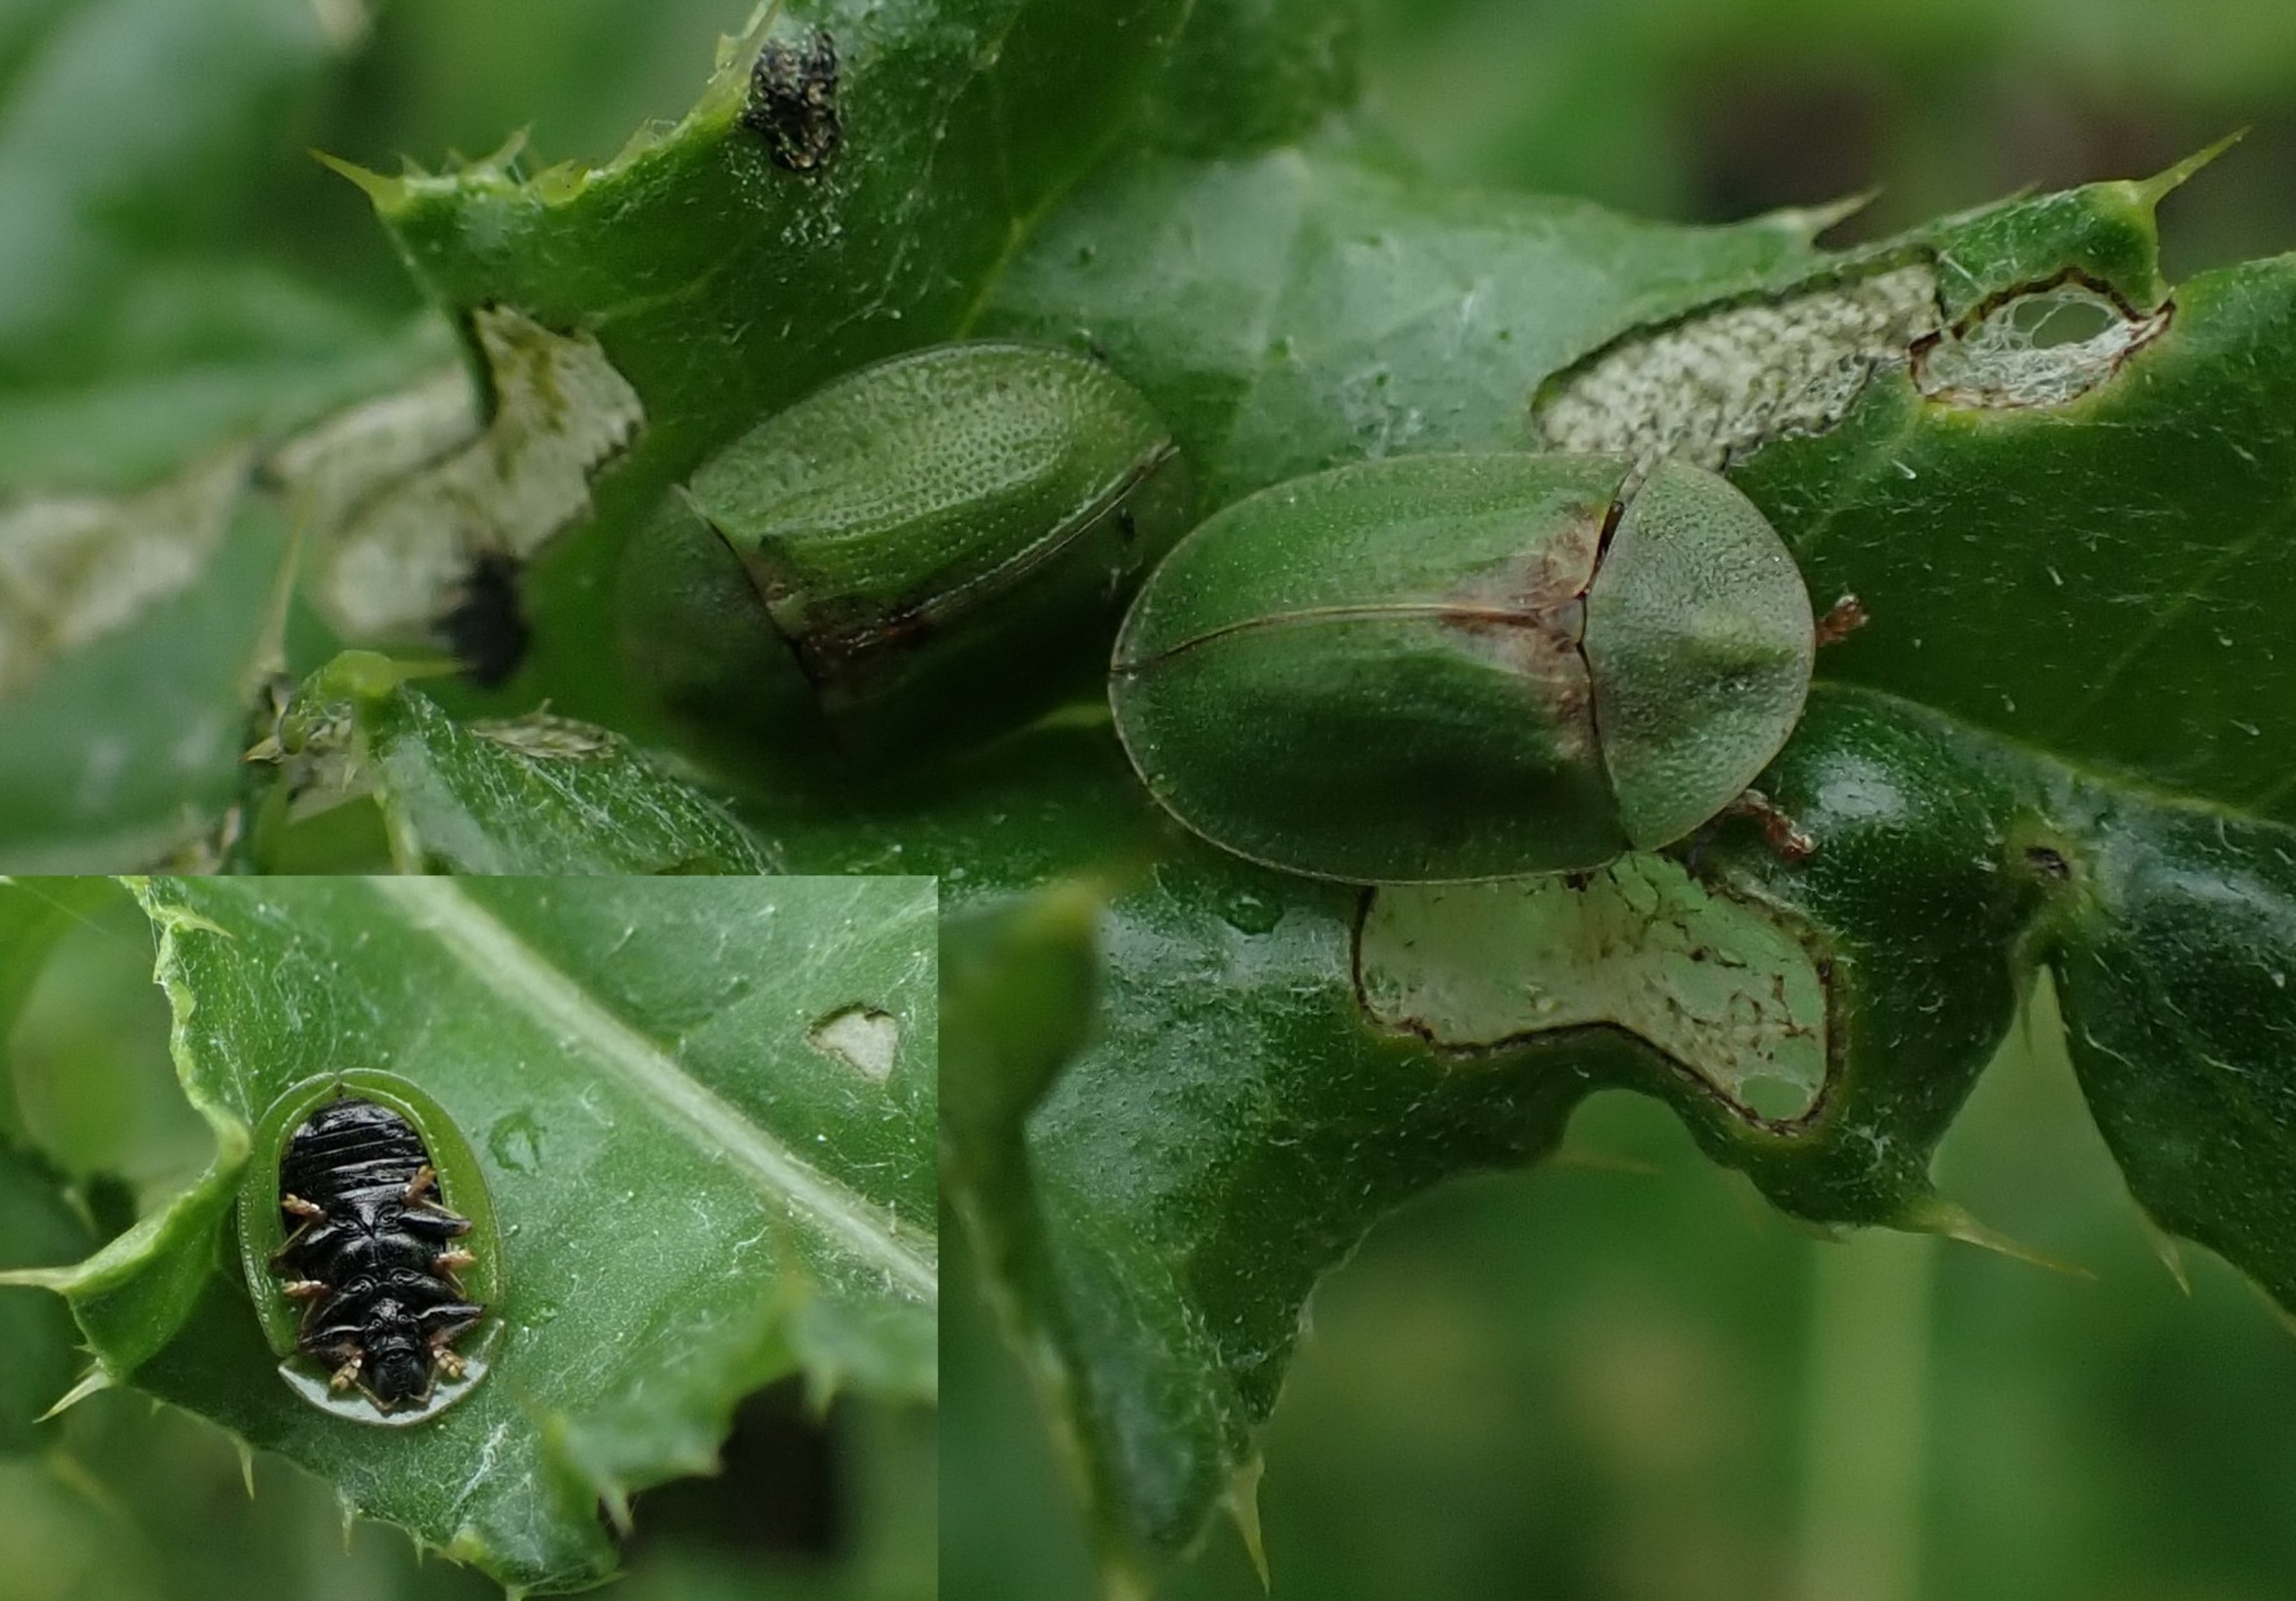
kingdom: Animalia
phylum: Arthropoda
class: Insecta
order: Coleoptera
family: Chrysomelidae
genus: Cassida
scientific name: Cassida rubiginosa
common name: Tidselskjoldbille
